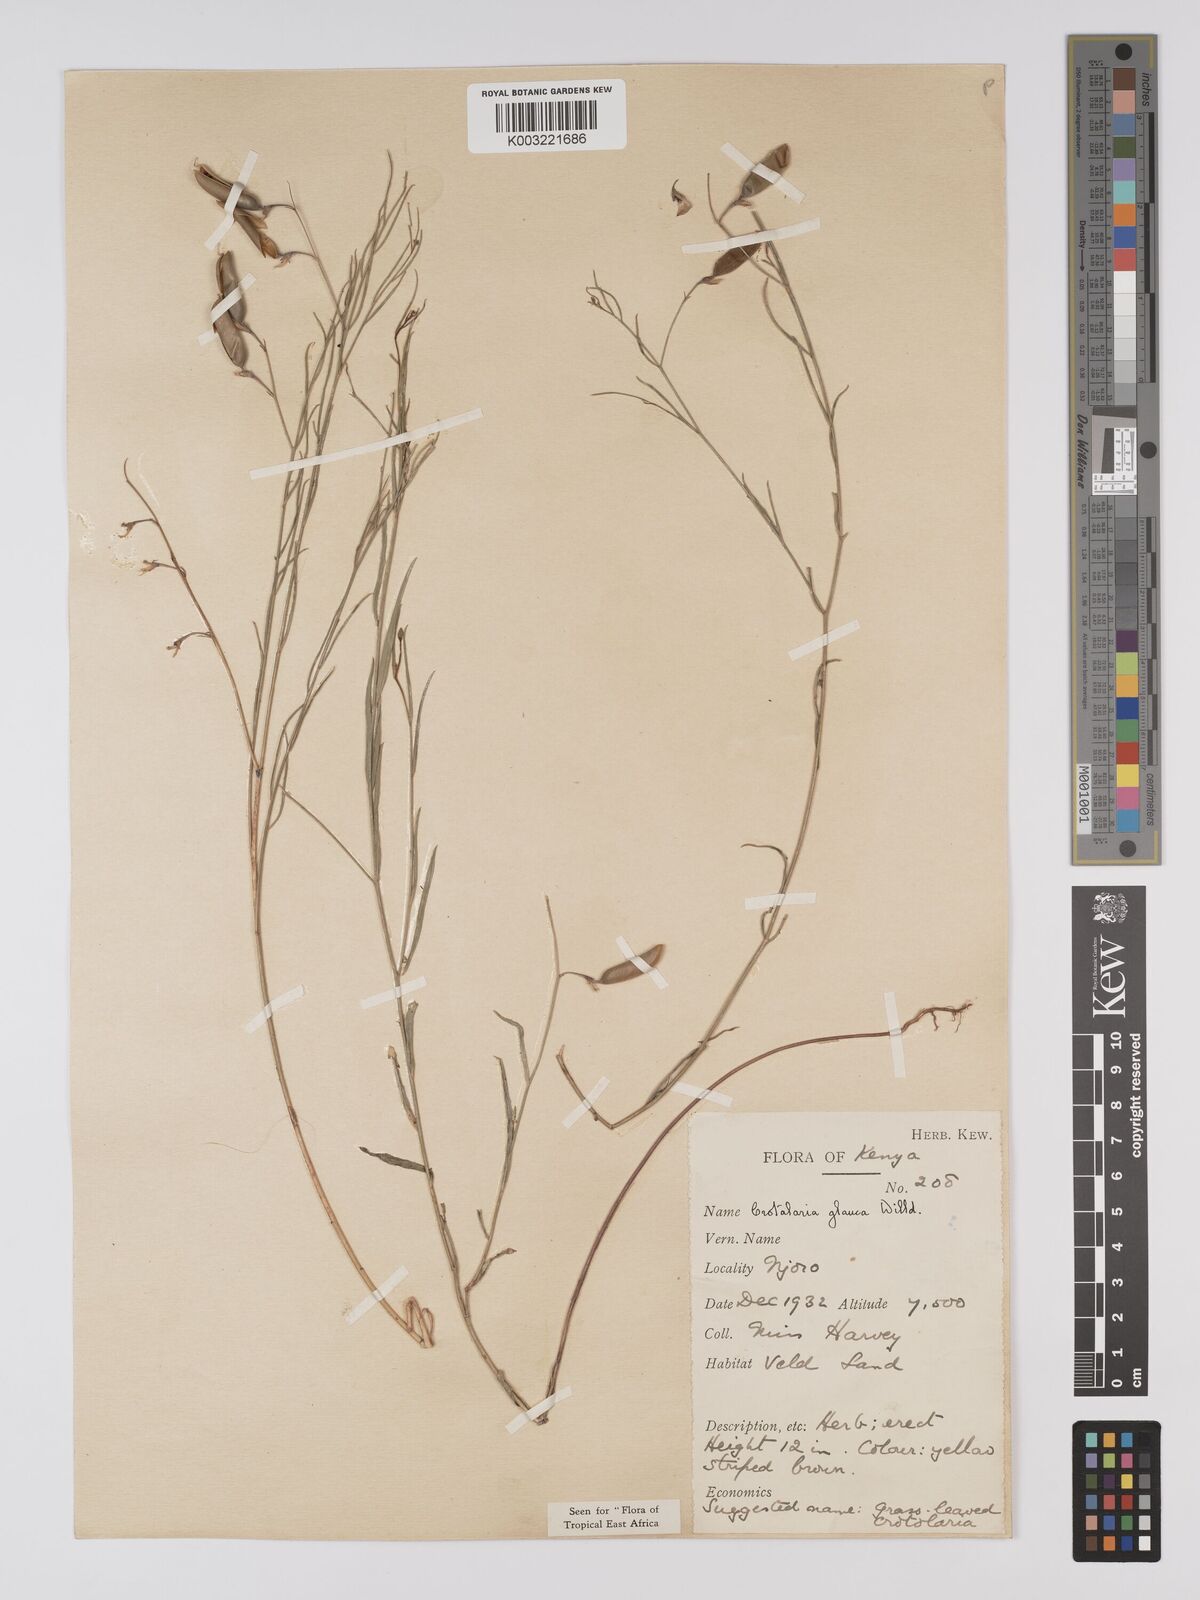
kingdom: Plantae
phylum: Tracheophyta
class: Magnoliopsida
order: Fabales
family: Fabaceae
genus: Crotalaria
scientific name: Crotalaria glauca
